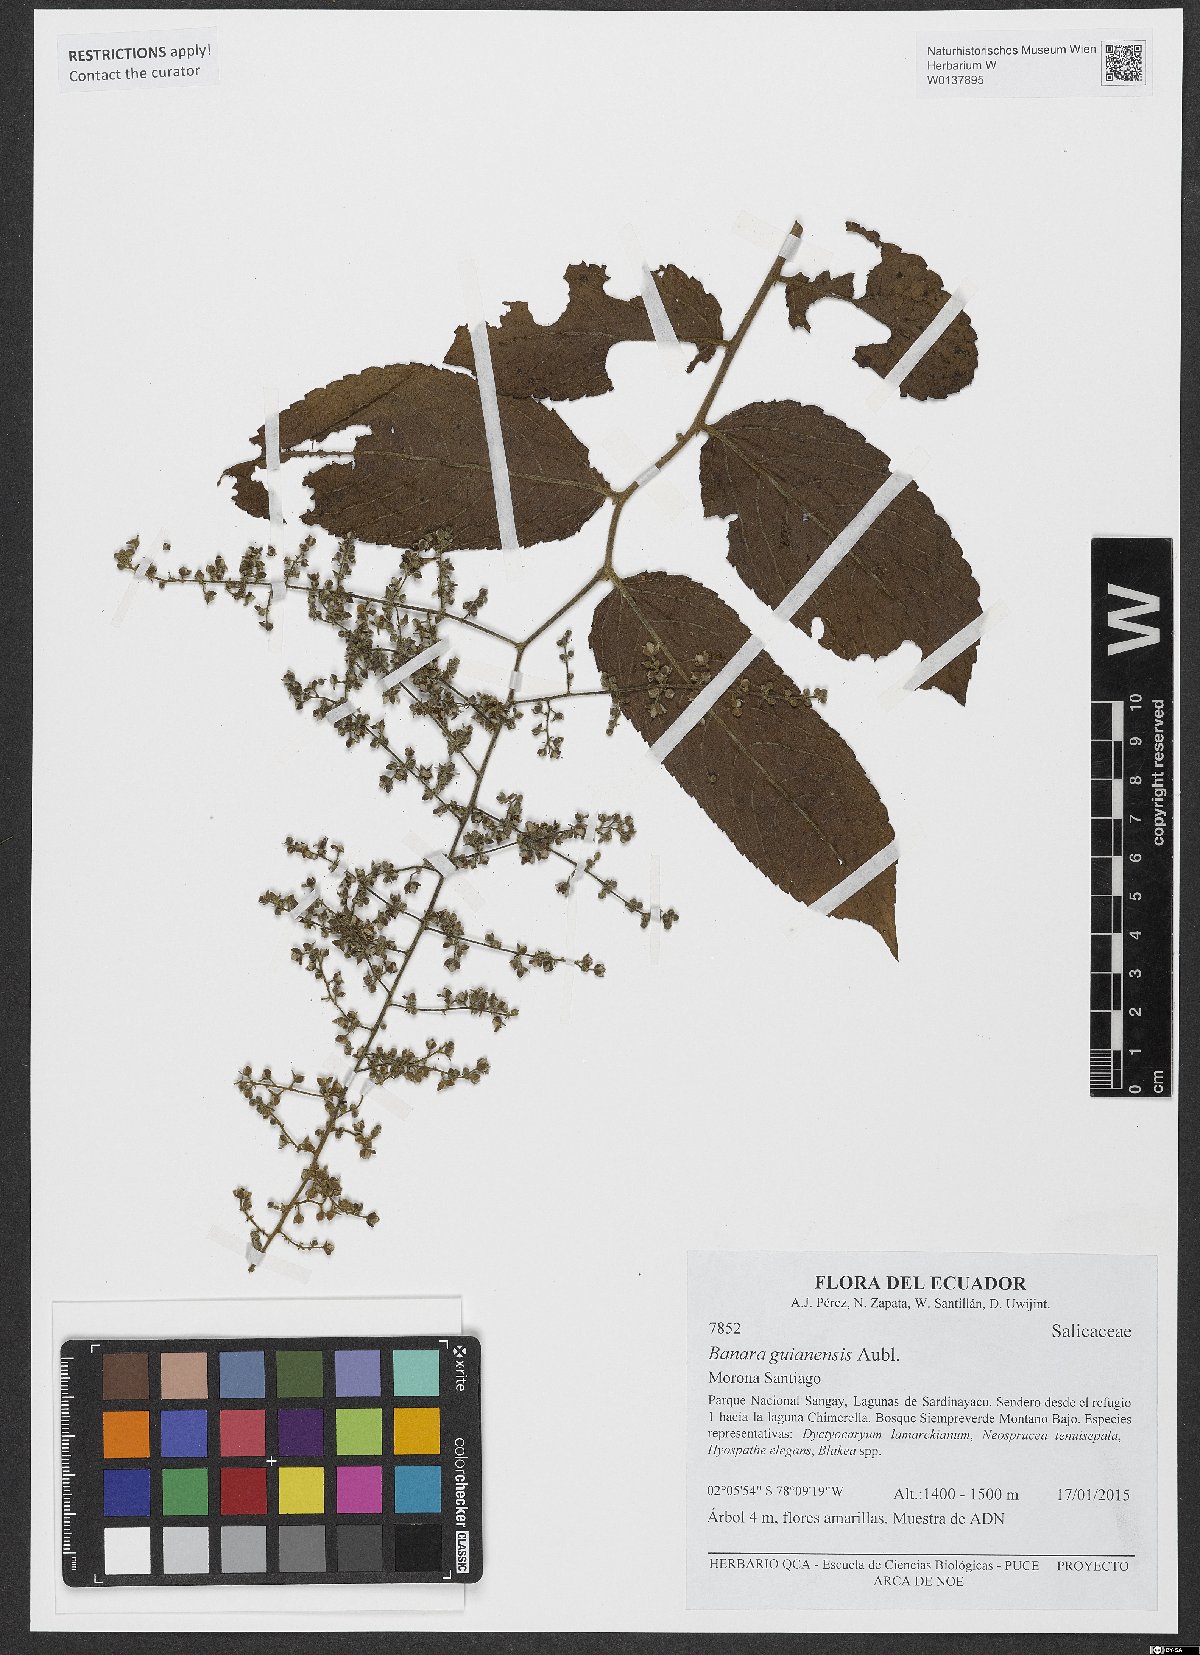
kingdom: Plantae
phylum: Tracheophyta
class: Magnoliopsida
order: Malpighiales
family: Salicaceae
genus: Banara
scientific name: Banara guianensis
